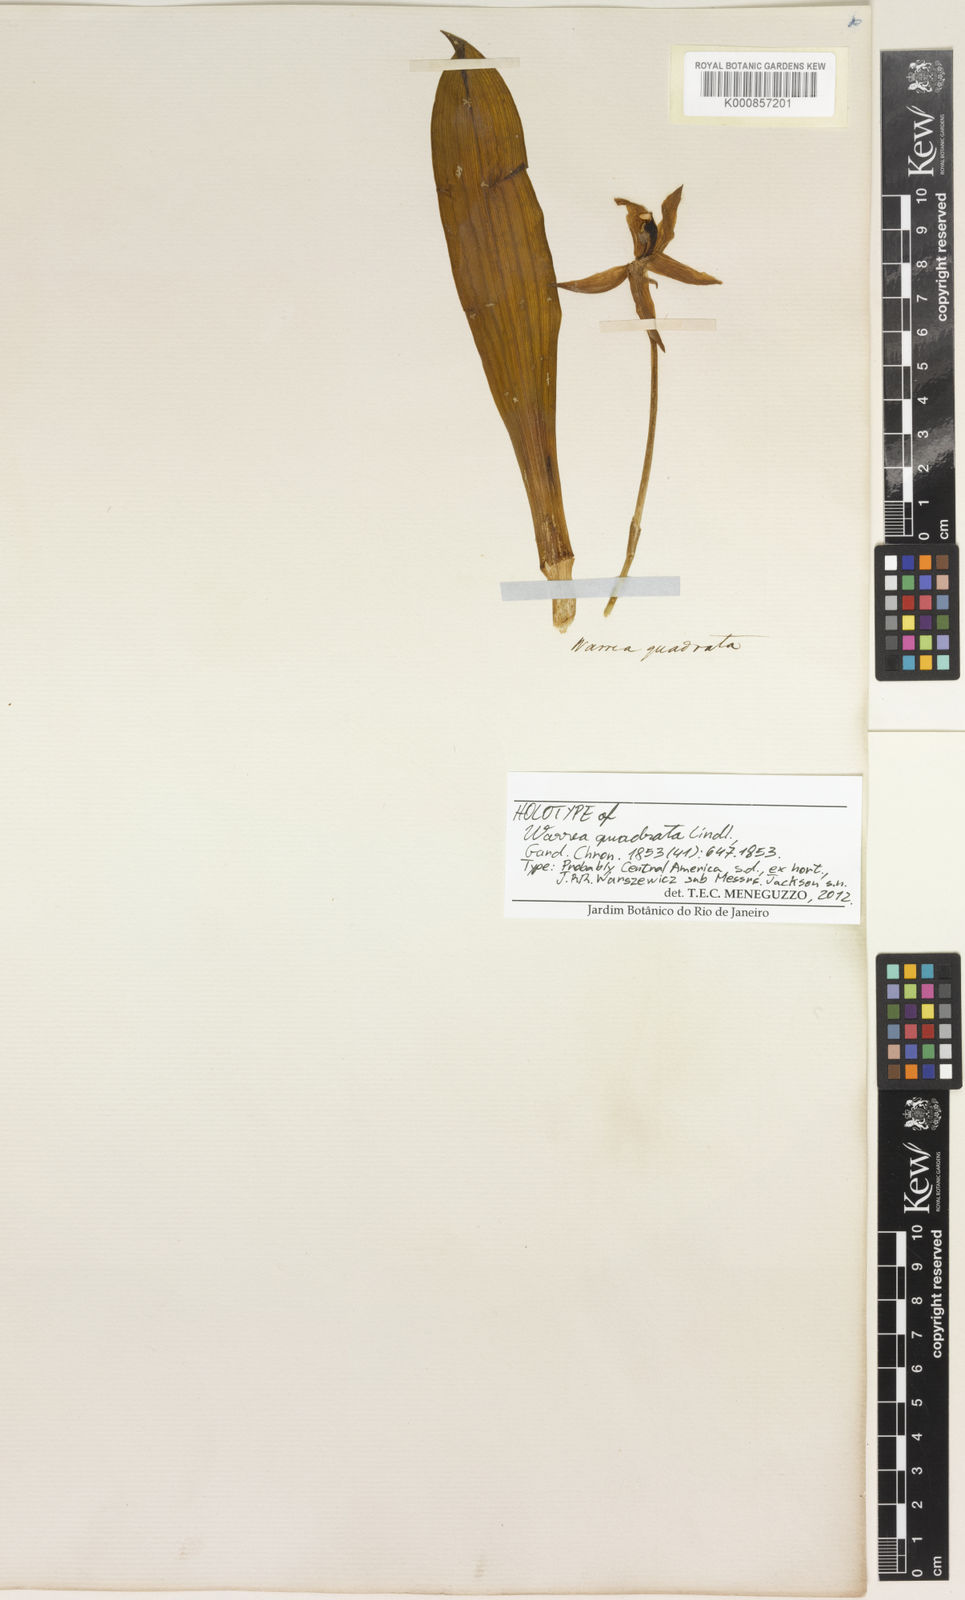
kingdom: Plantae
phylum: Tracheophyta
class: Liliopsida
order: Asparagales
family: Orchidaceae
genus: Warczewiczella
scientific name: Warczewiczella marginata
